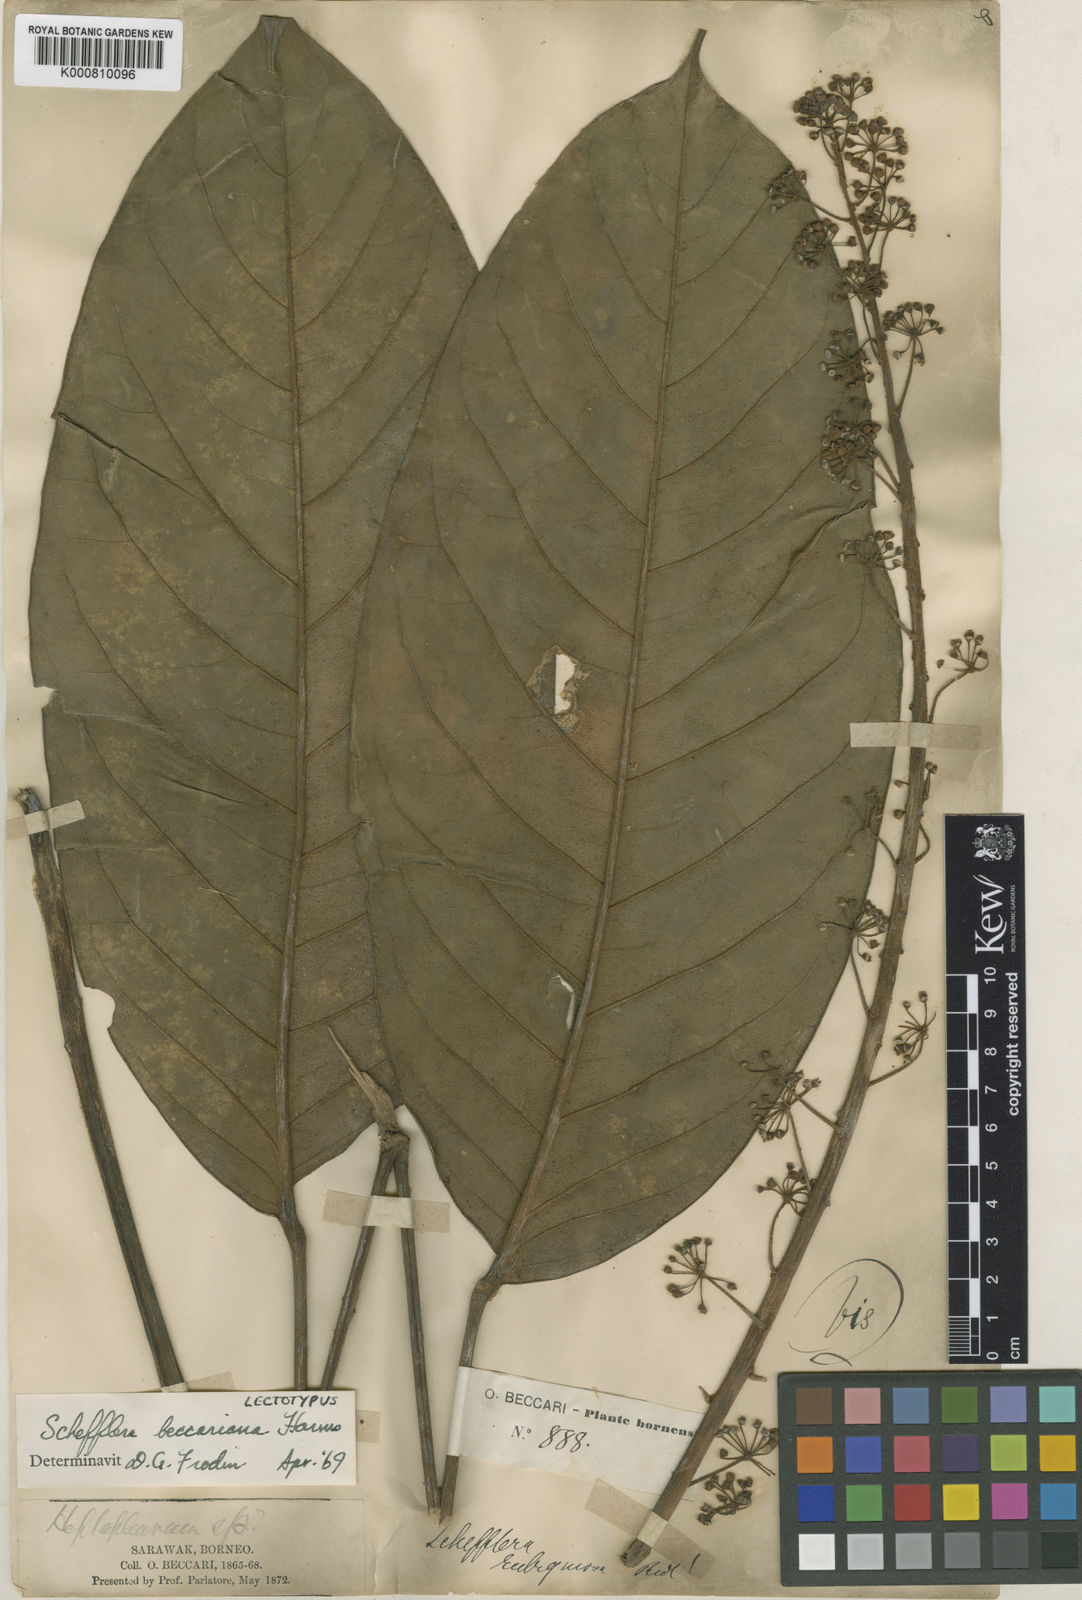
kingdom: Plantae
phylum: Tracheophyta
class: Magnoliopsida
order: Apiales
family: Araliaceae
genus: Heptapleurum
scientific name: Heptapleurum beccarianum
